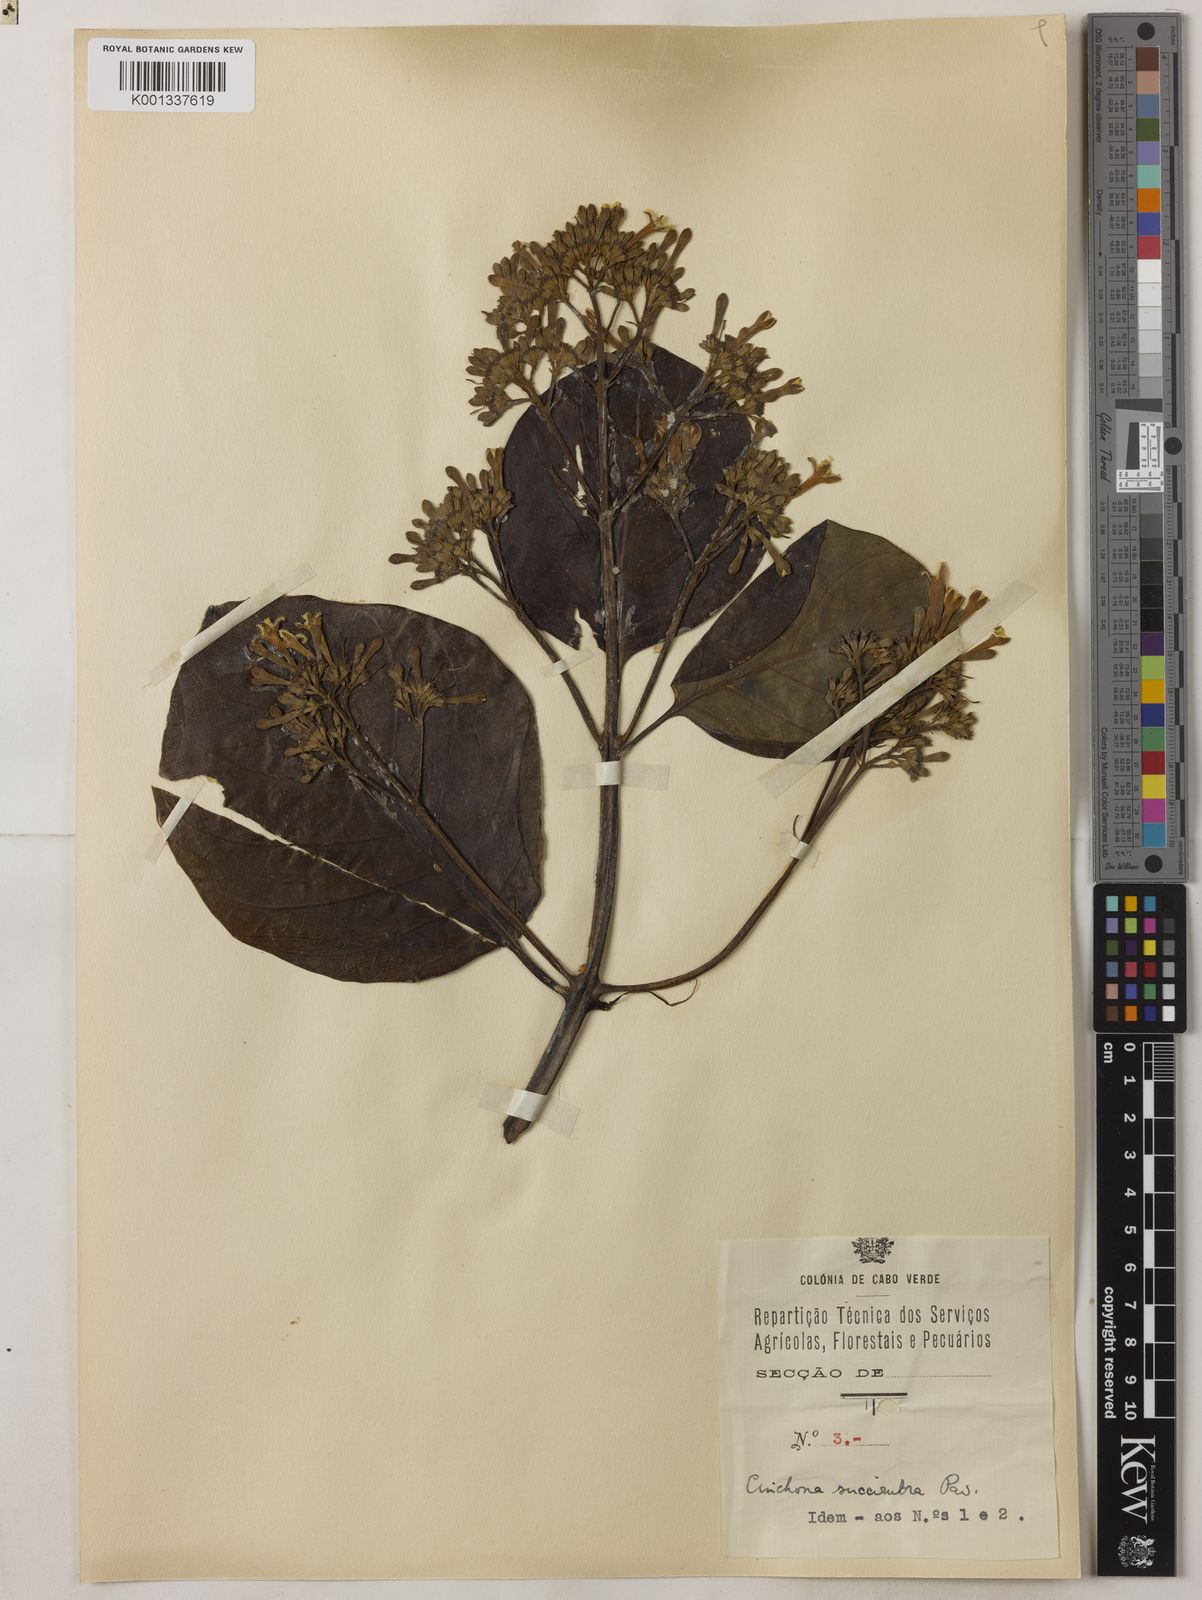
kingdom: Plantae
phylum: Tracheophyta
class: Magnoliopsida
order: Gentianales
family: Rubiaceae
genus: Cinchona
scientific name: Cinchona pubescens
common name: Quinine
